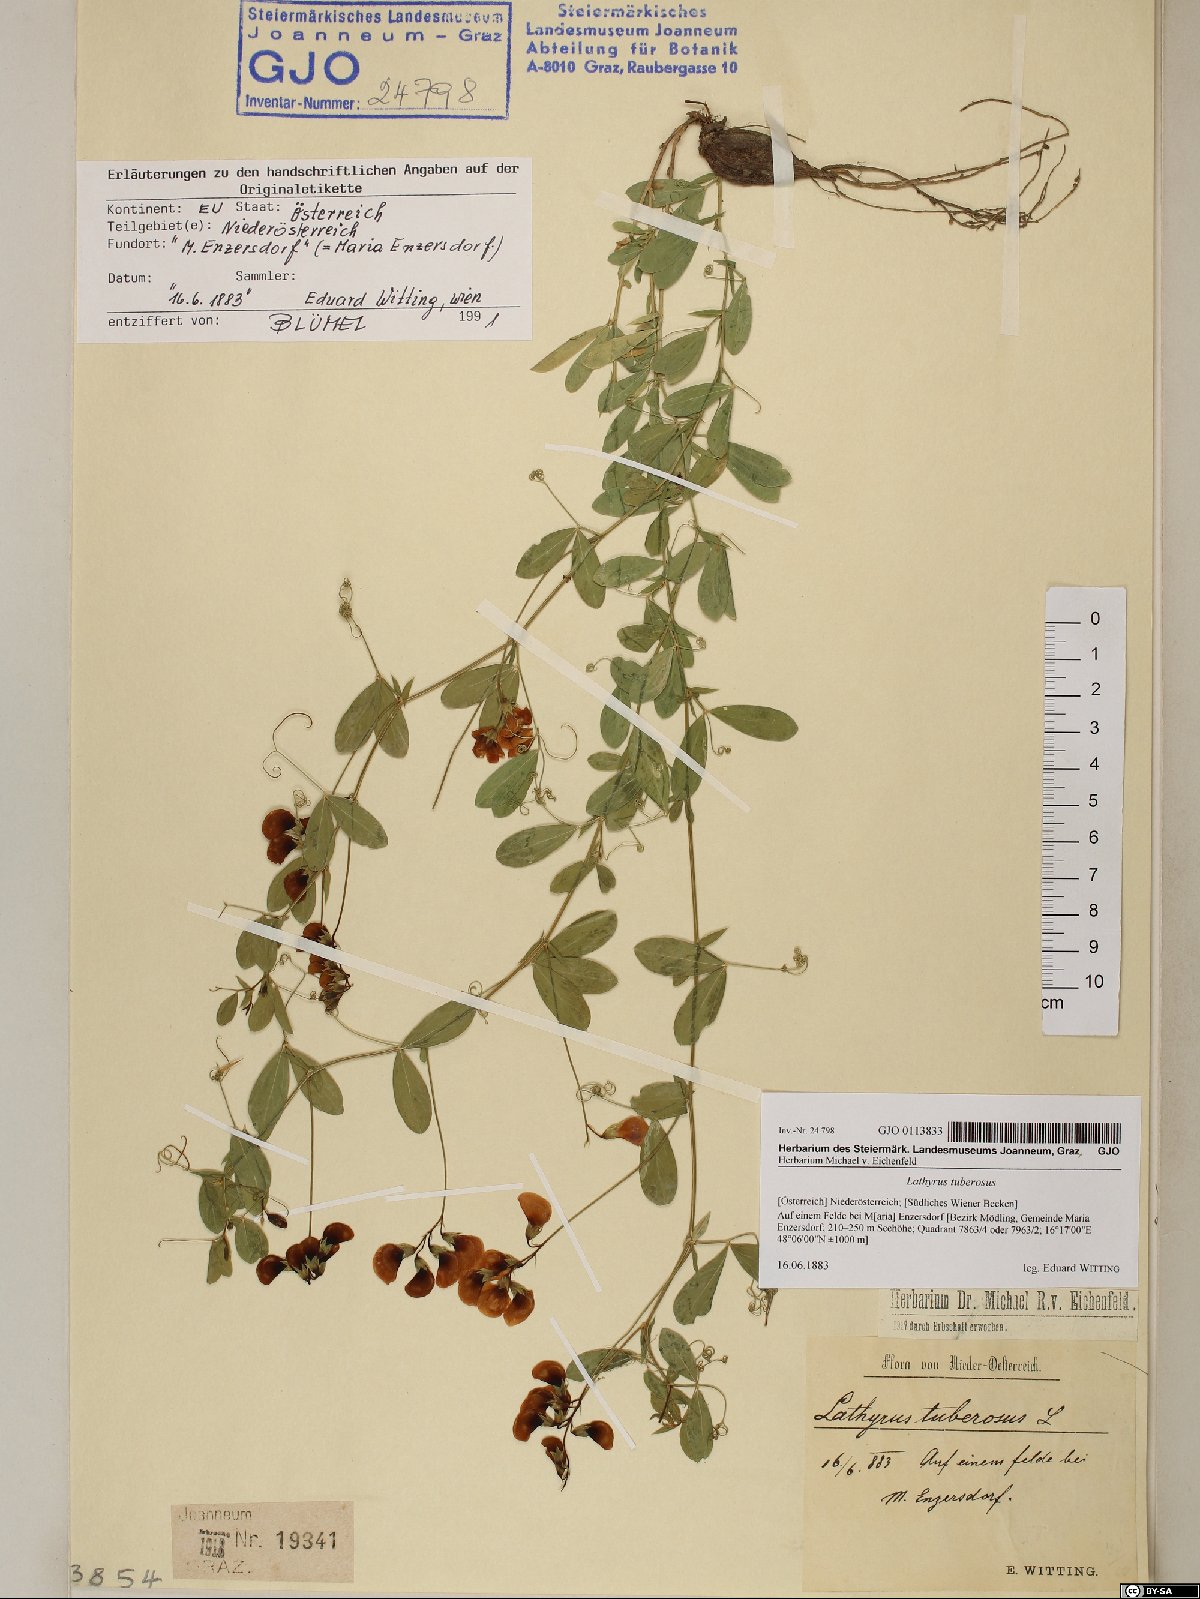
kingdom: Plantae
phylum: Tracheophyta
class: Magnoliopsida
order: Fabales
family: Fabaceae
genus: Lathyrus
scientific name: Lathyrus tuberosus
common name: Tuberous pea
